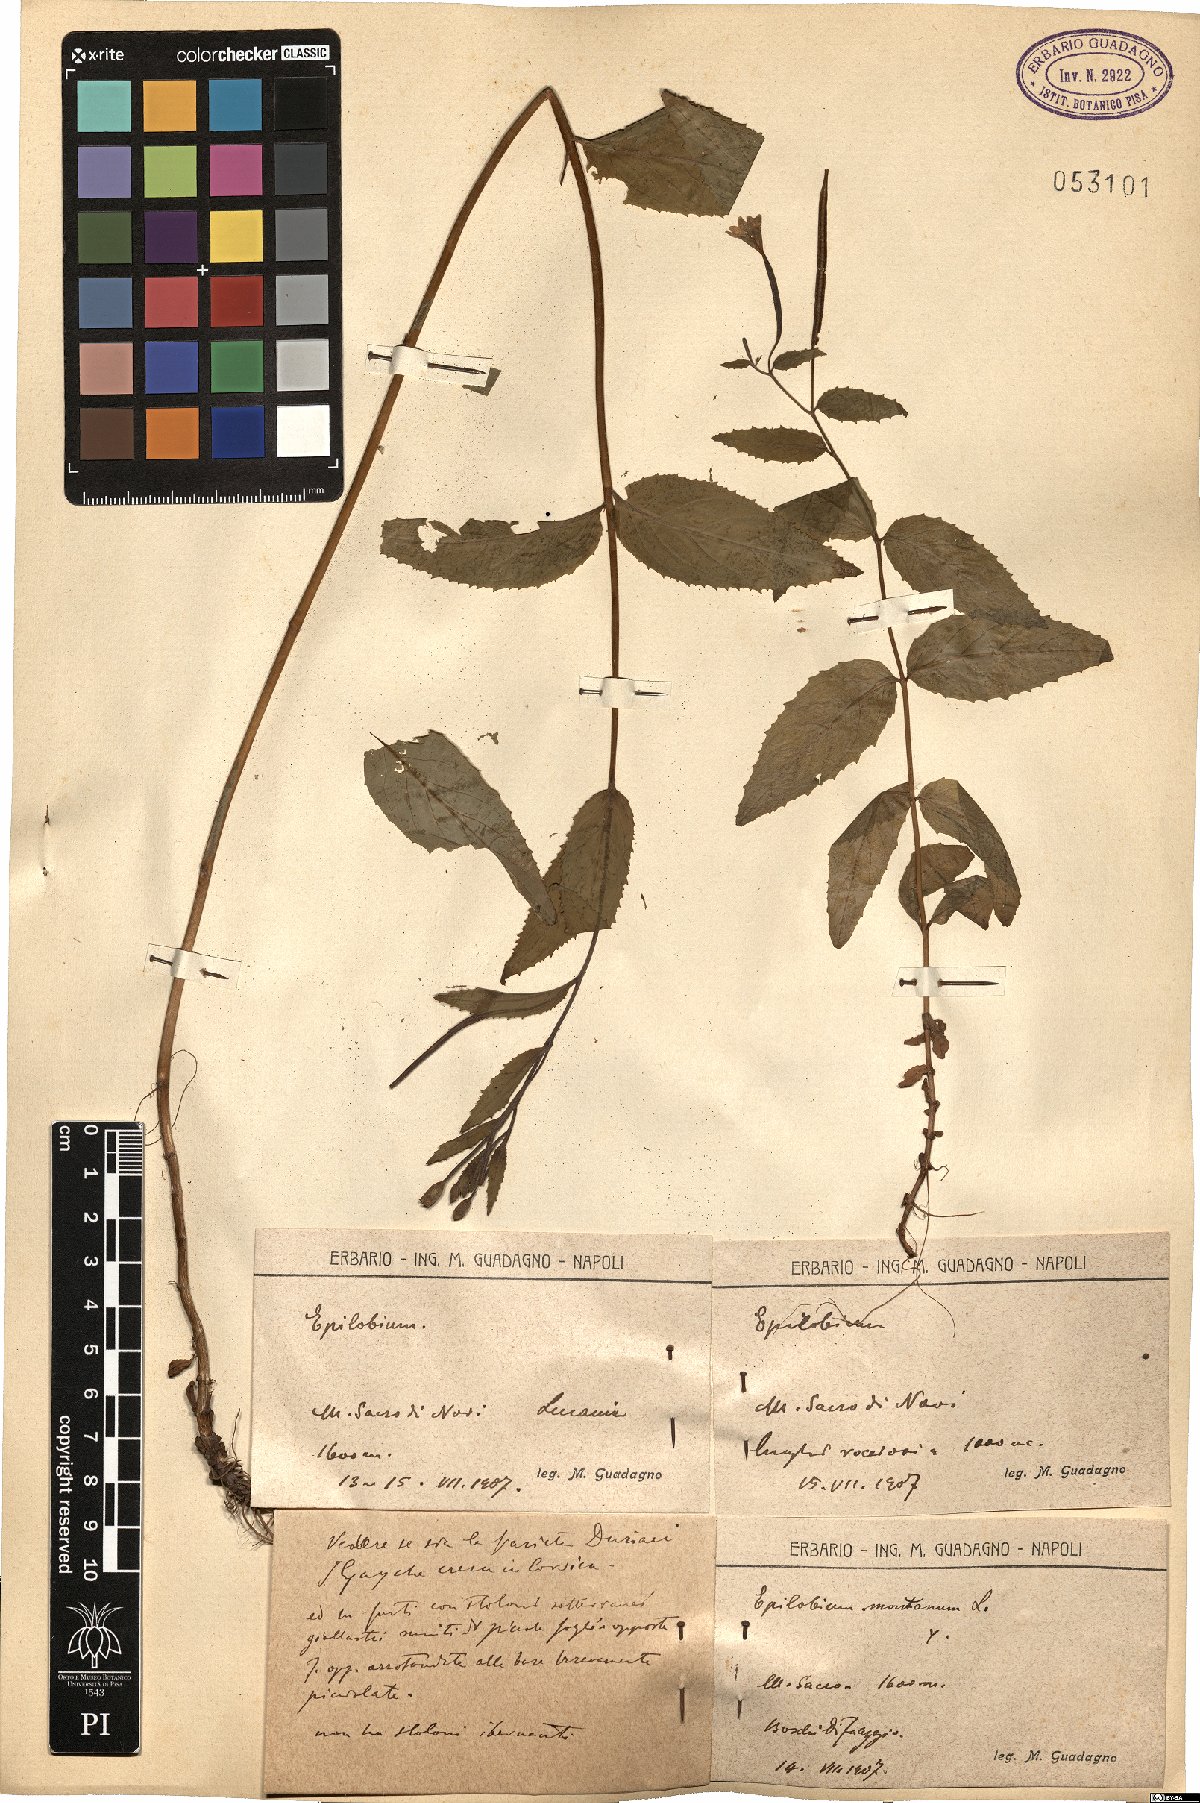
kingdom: Plantae
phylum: Tracheophyta
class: Magnoliopsida
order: Myrtales
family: Onagraceae
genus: Epilobium
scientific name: Epilobium montanum
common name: Broad-leaved willowherb
